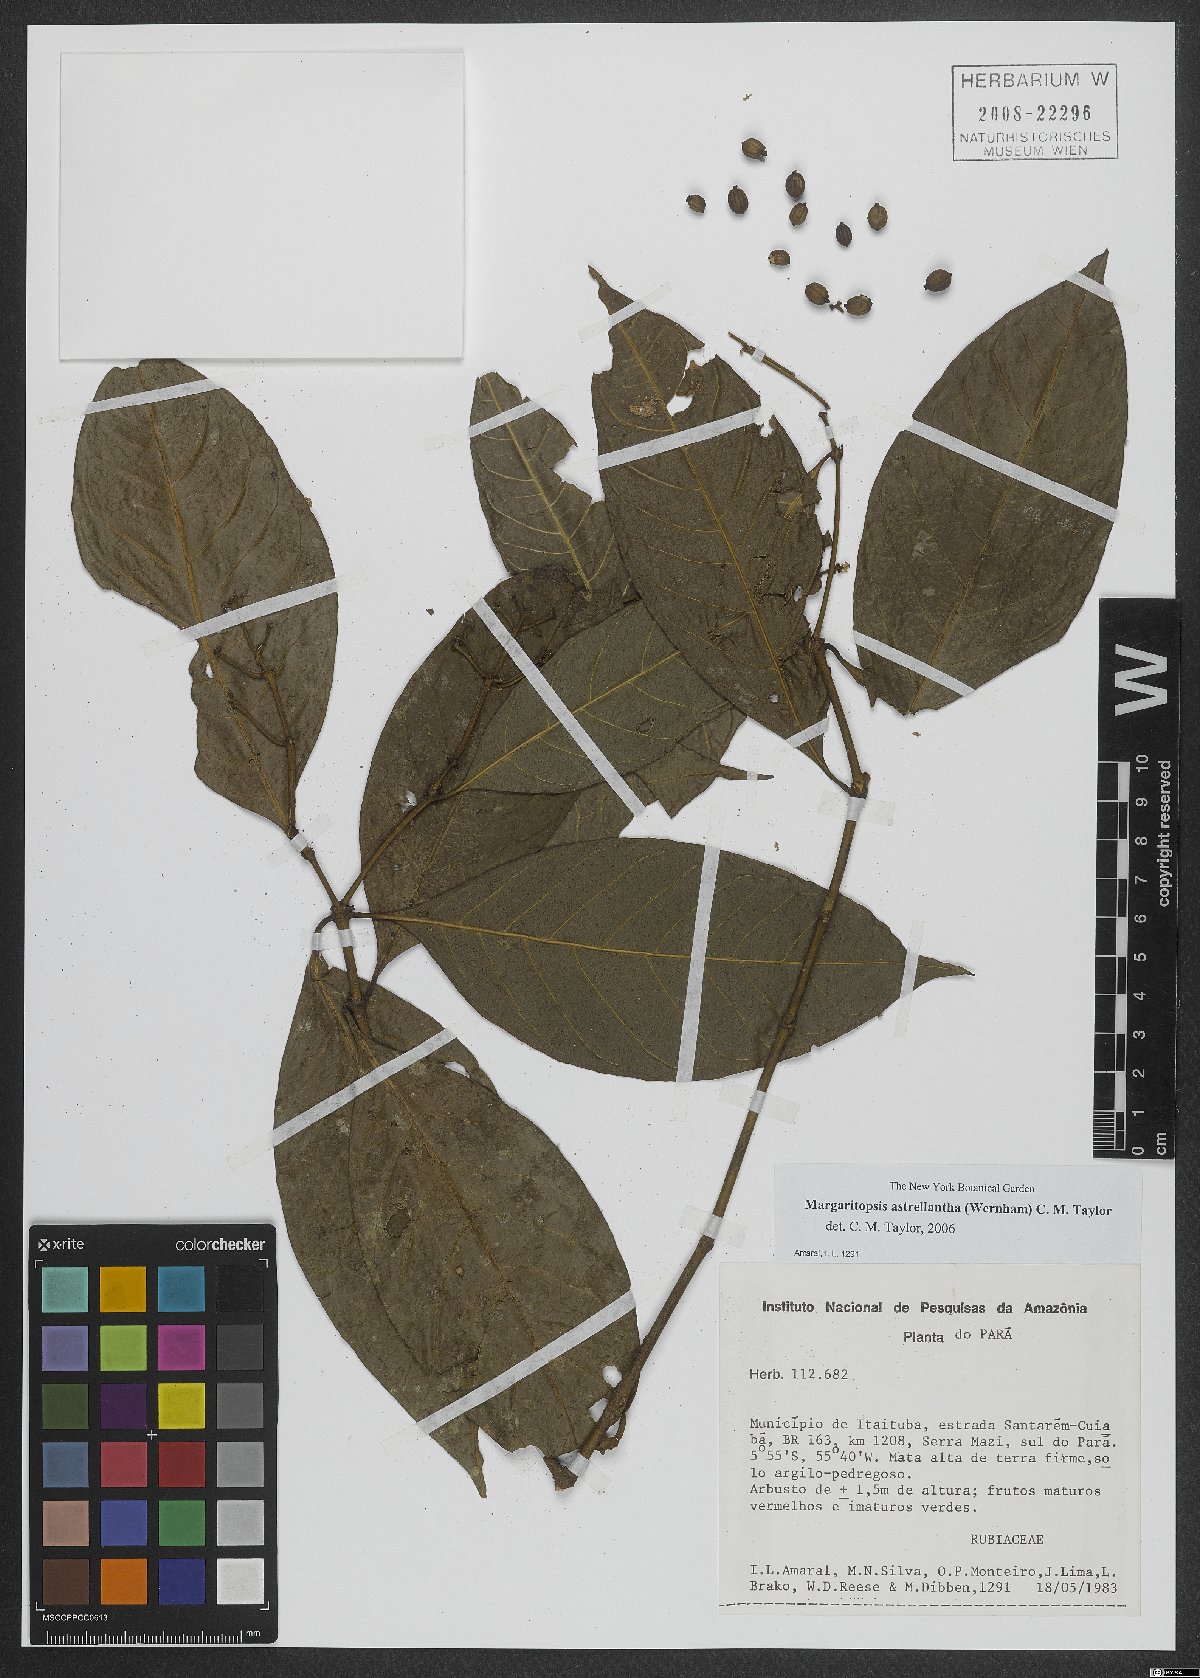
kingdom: Plantae
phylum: Tracheophyta
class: Magnoliopsida
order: Gentianales
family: Rubiaceae
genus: Eumachia
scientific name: Eumachia astrellantha
